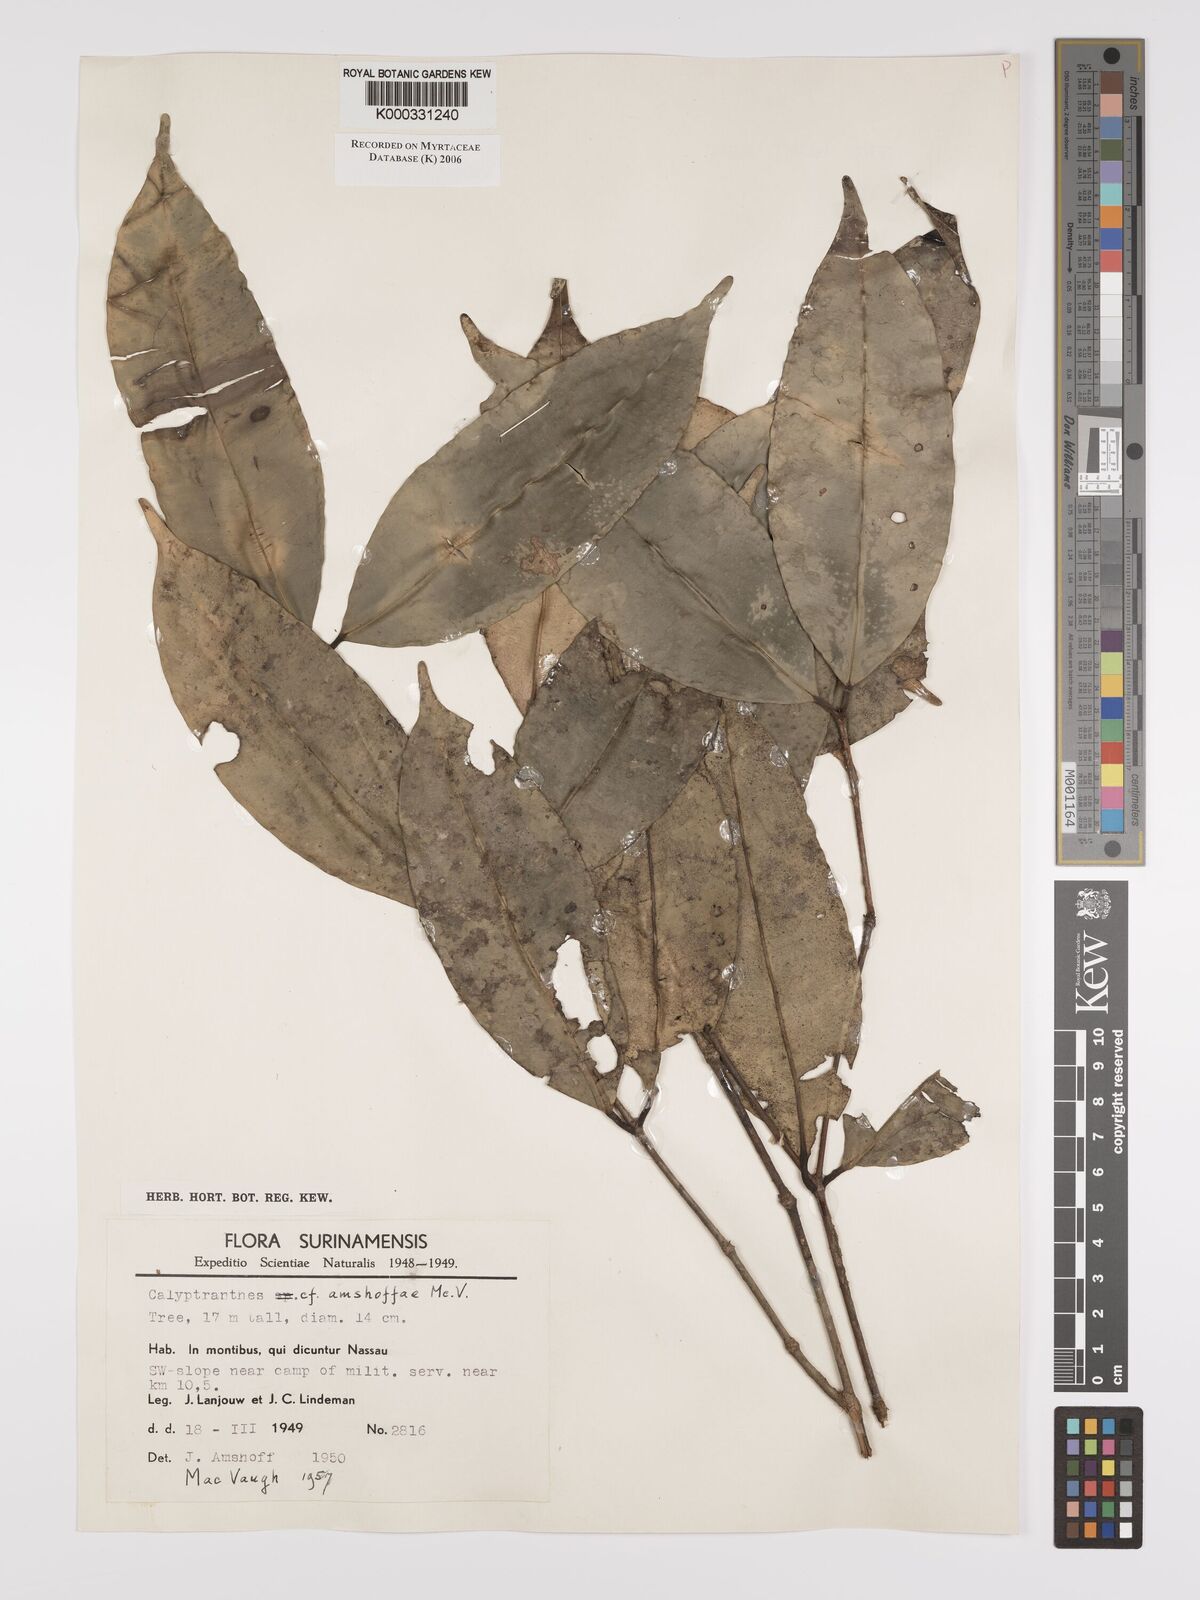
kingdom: Plantae
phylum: Tracheophyta
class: Magnoliopsida
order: Myrtales
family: Myrtaceae
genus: Myrcia
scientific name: Myrcia amshoffae
